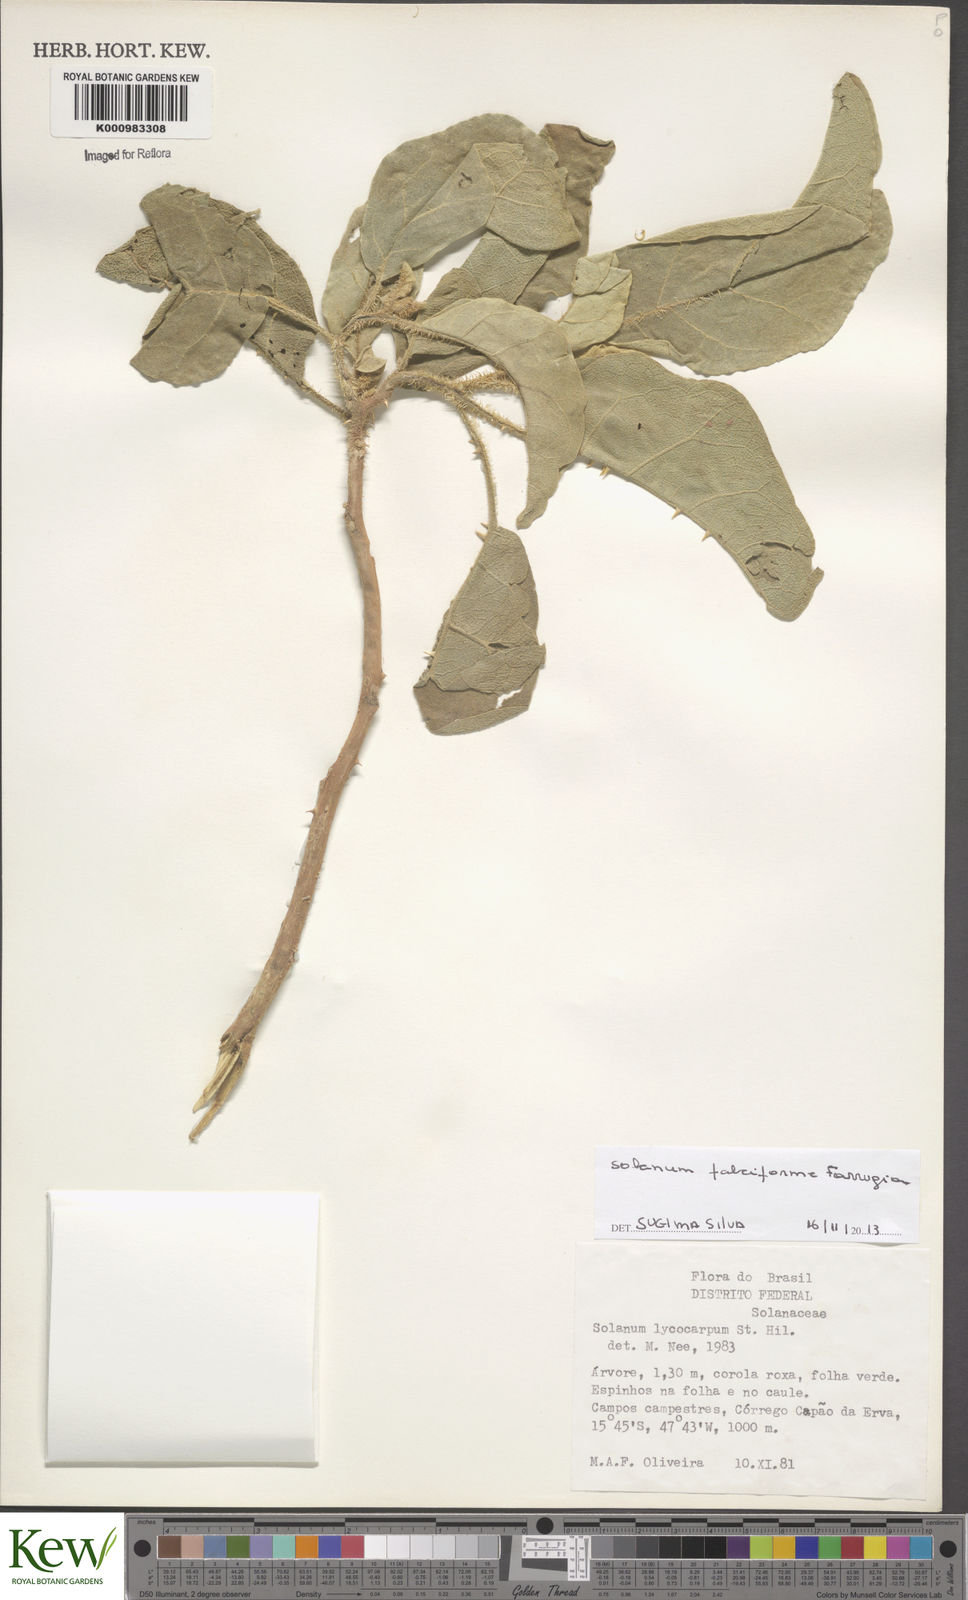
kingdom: Plantae
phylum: Tracheophyta
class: Magnoliopsida
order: Solanales
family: Solanaceae
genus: Solanum
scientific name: Solanum crinitum
